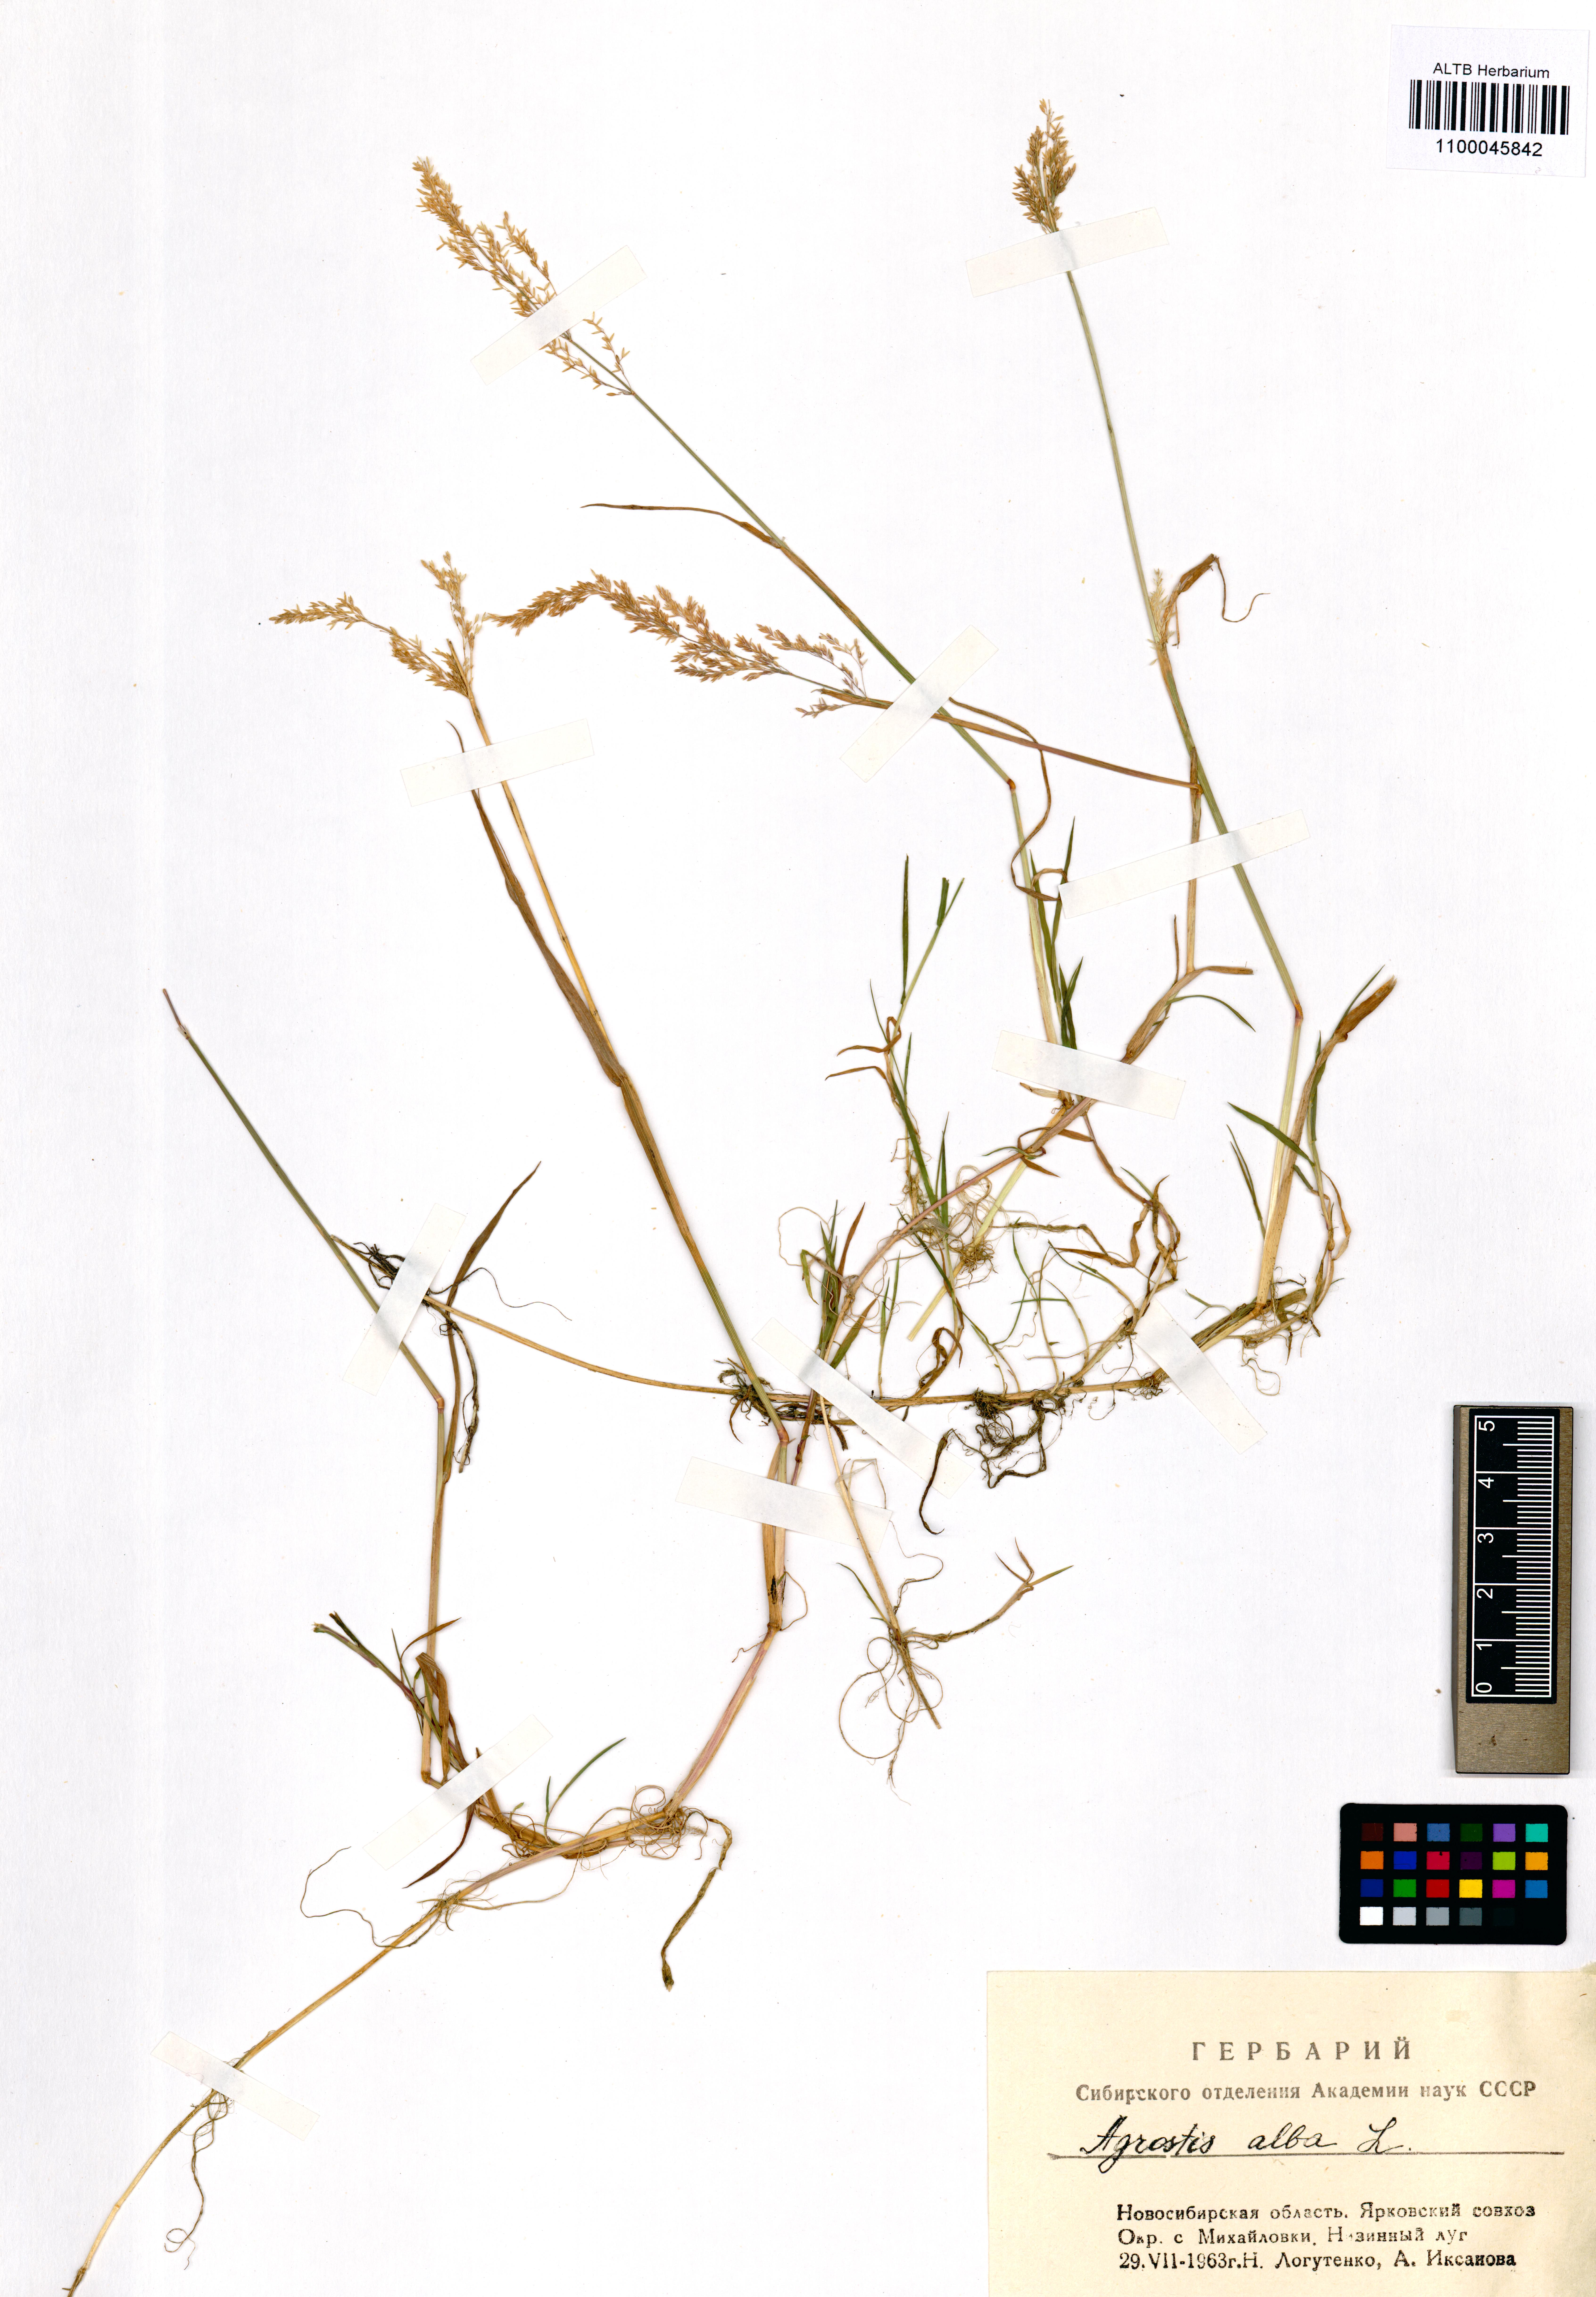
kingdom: Plantae
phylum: Tracheophyta
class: Liliopsida
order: Poales
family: Poaceae
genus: Agrostis
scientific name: Agrostis gigantea
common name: Black bent
